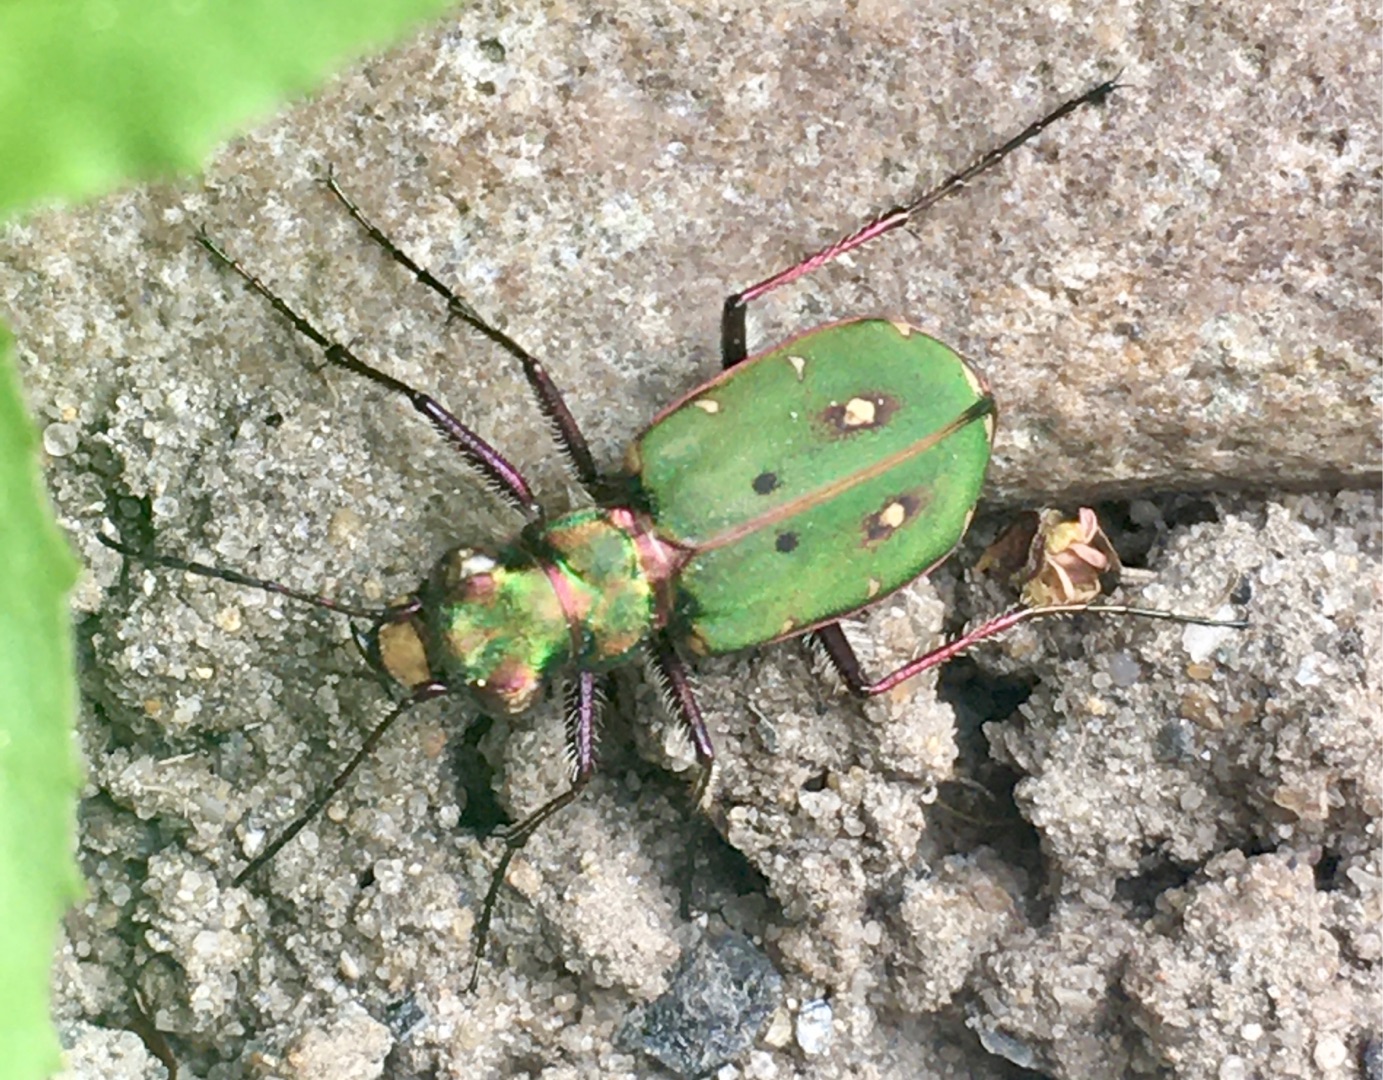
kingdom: Animalia
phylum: Arthropoda
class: Insecta
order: Coleoptera
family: Carabidae
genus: Cicindela
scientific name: Cicindela campestris
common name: Grøn sandspringer
